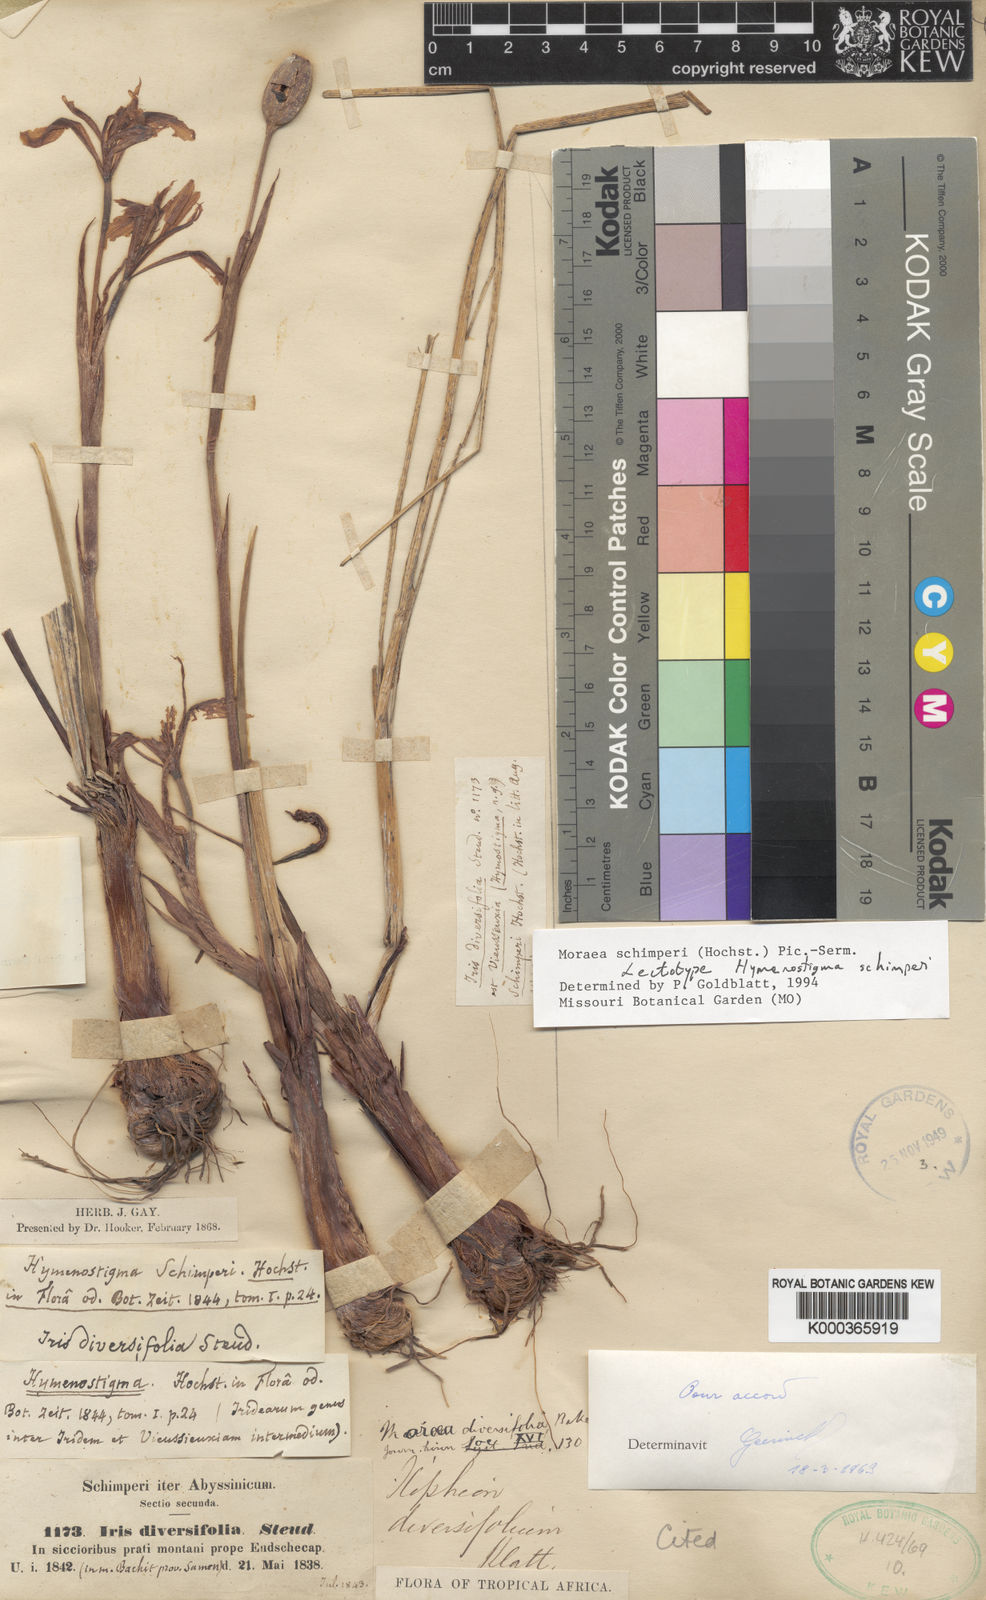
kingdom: Plantae
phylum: Tracheophyta
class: Liliopsida
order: Asparagales
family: Iridaceae
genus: Moraea
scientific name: Moraea schimperi
